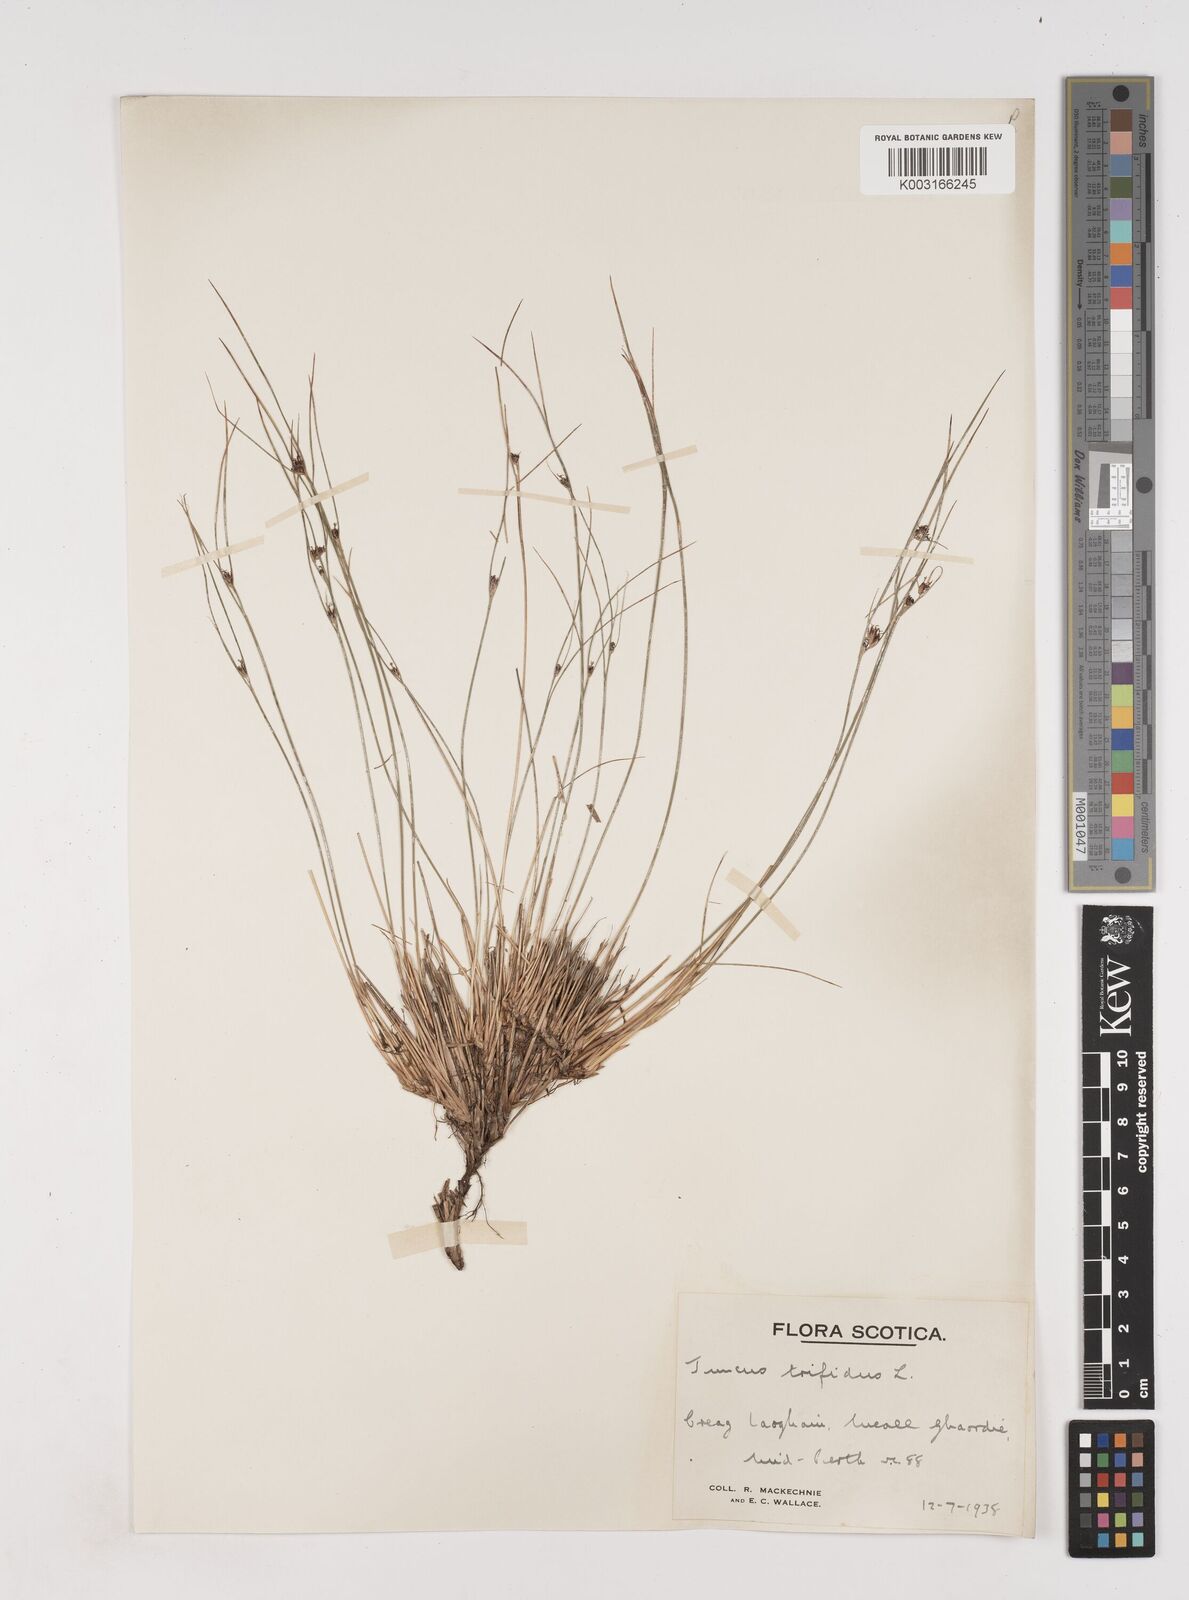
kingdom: Plantae
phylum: Tracheophyta
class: Liliopsida
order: Poales
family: Juncaceae
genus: Oreojuncus
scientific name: Oreojuncus trifidus
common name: Highland rush
